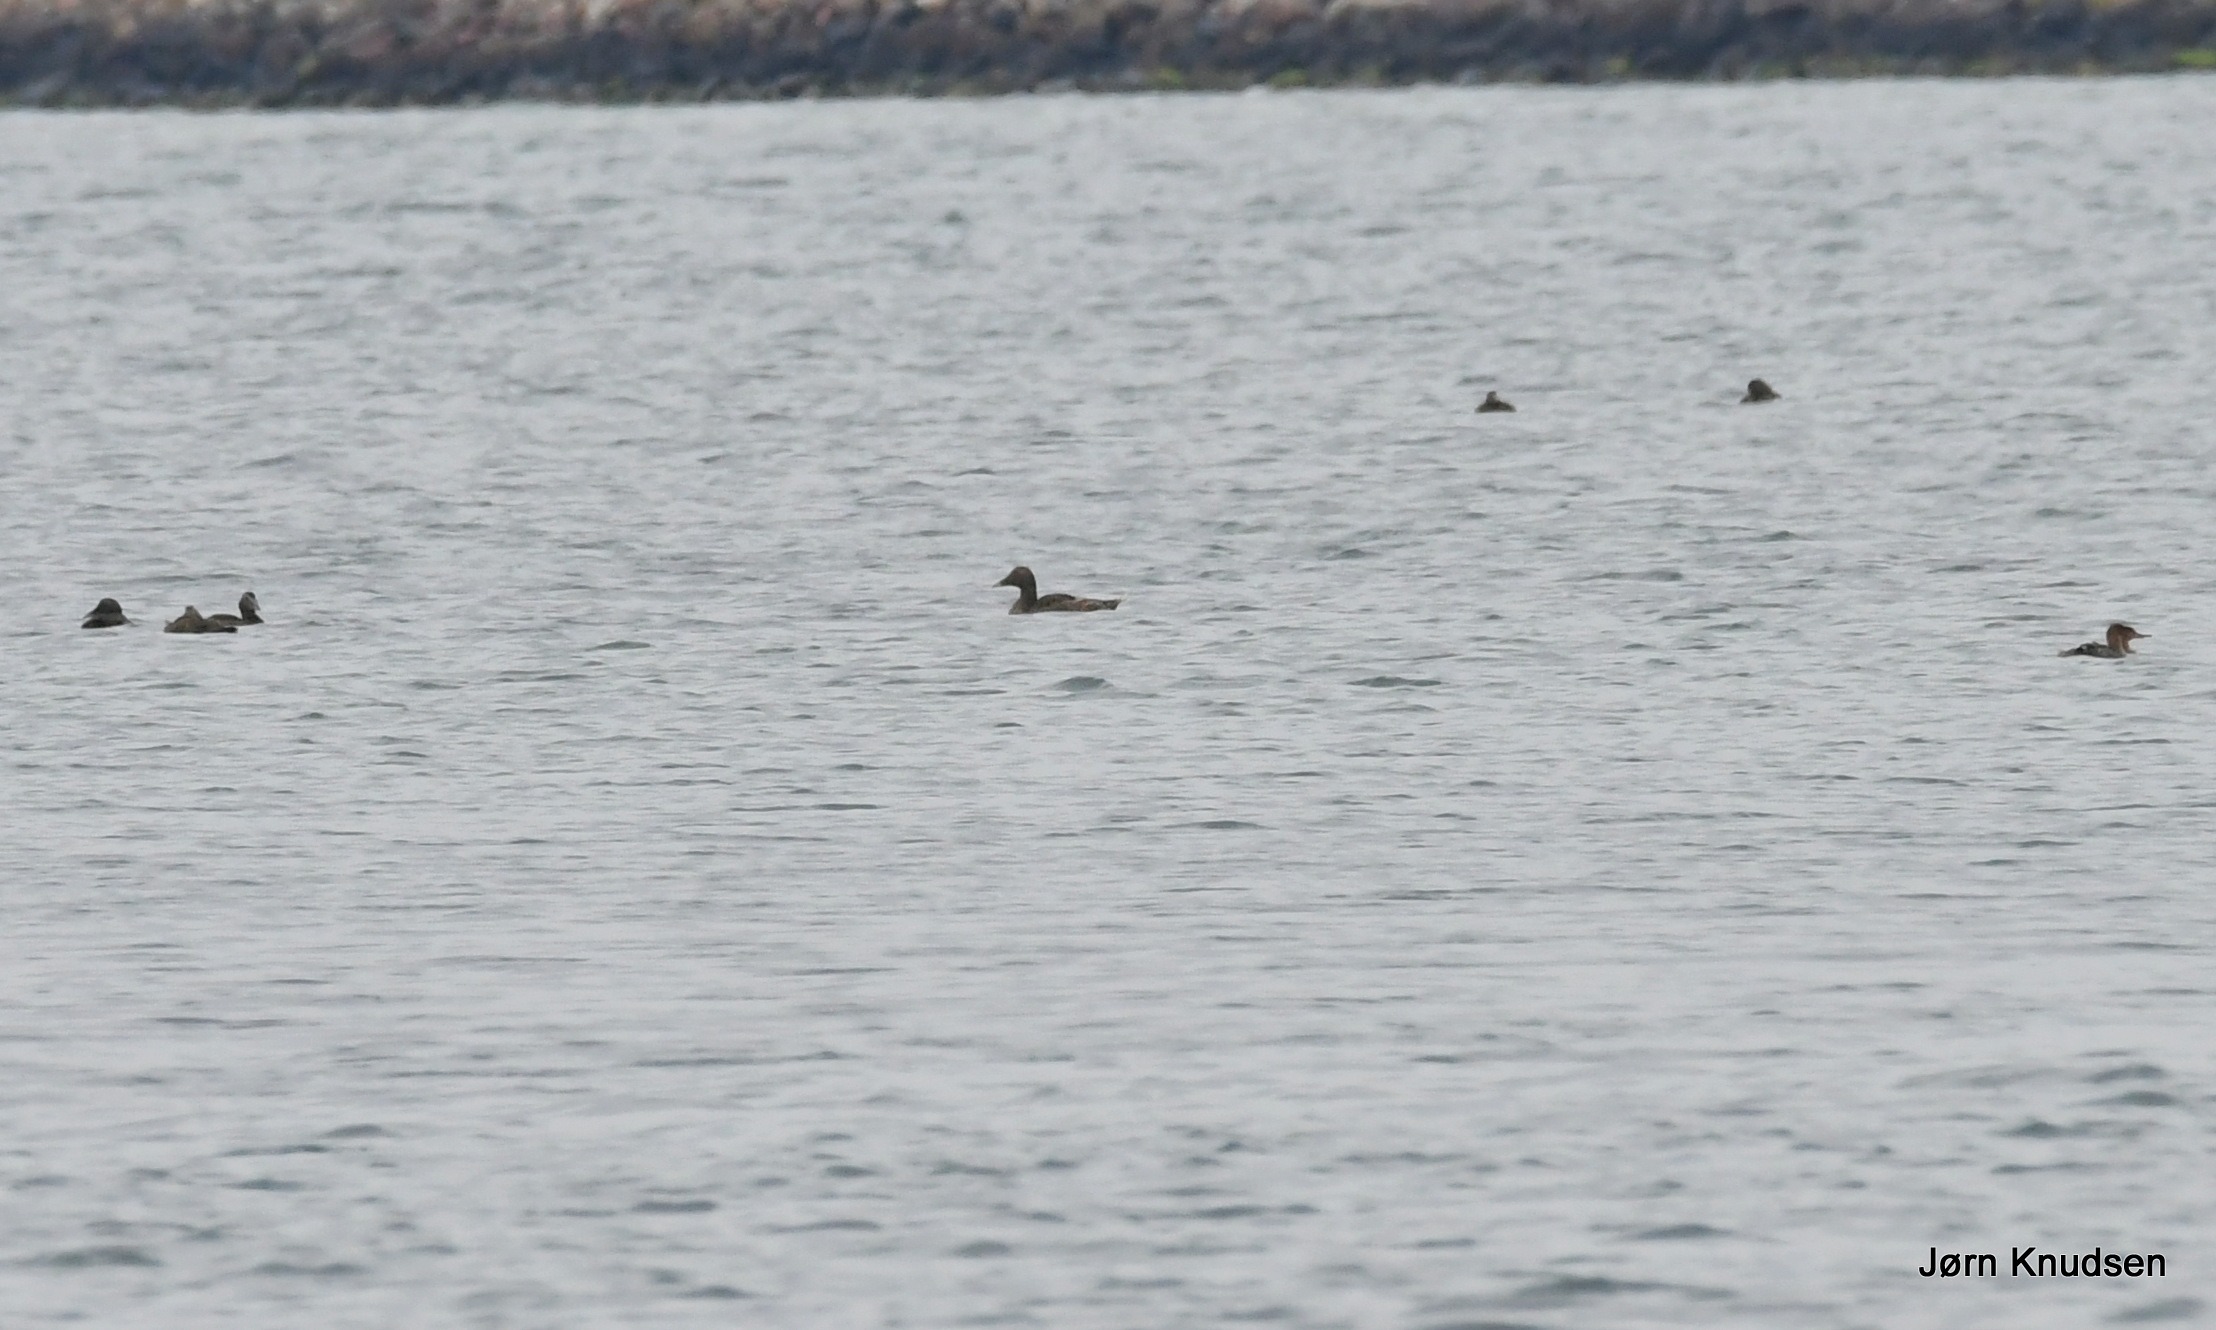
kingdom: Animalia
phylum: Chordata
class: Aves
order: Anseriformes
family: Anatidae
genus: Somateria
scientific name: Somateria mollissima
